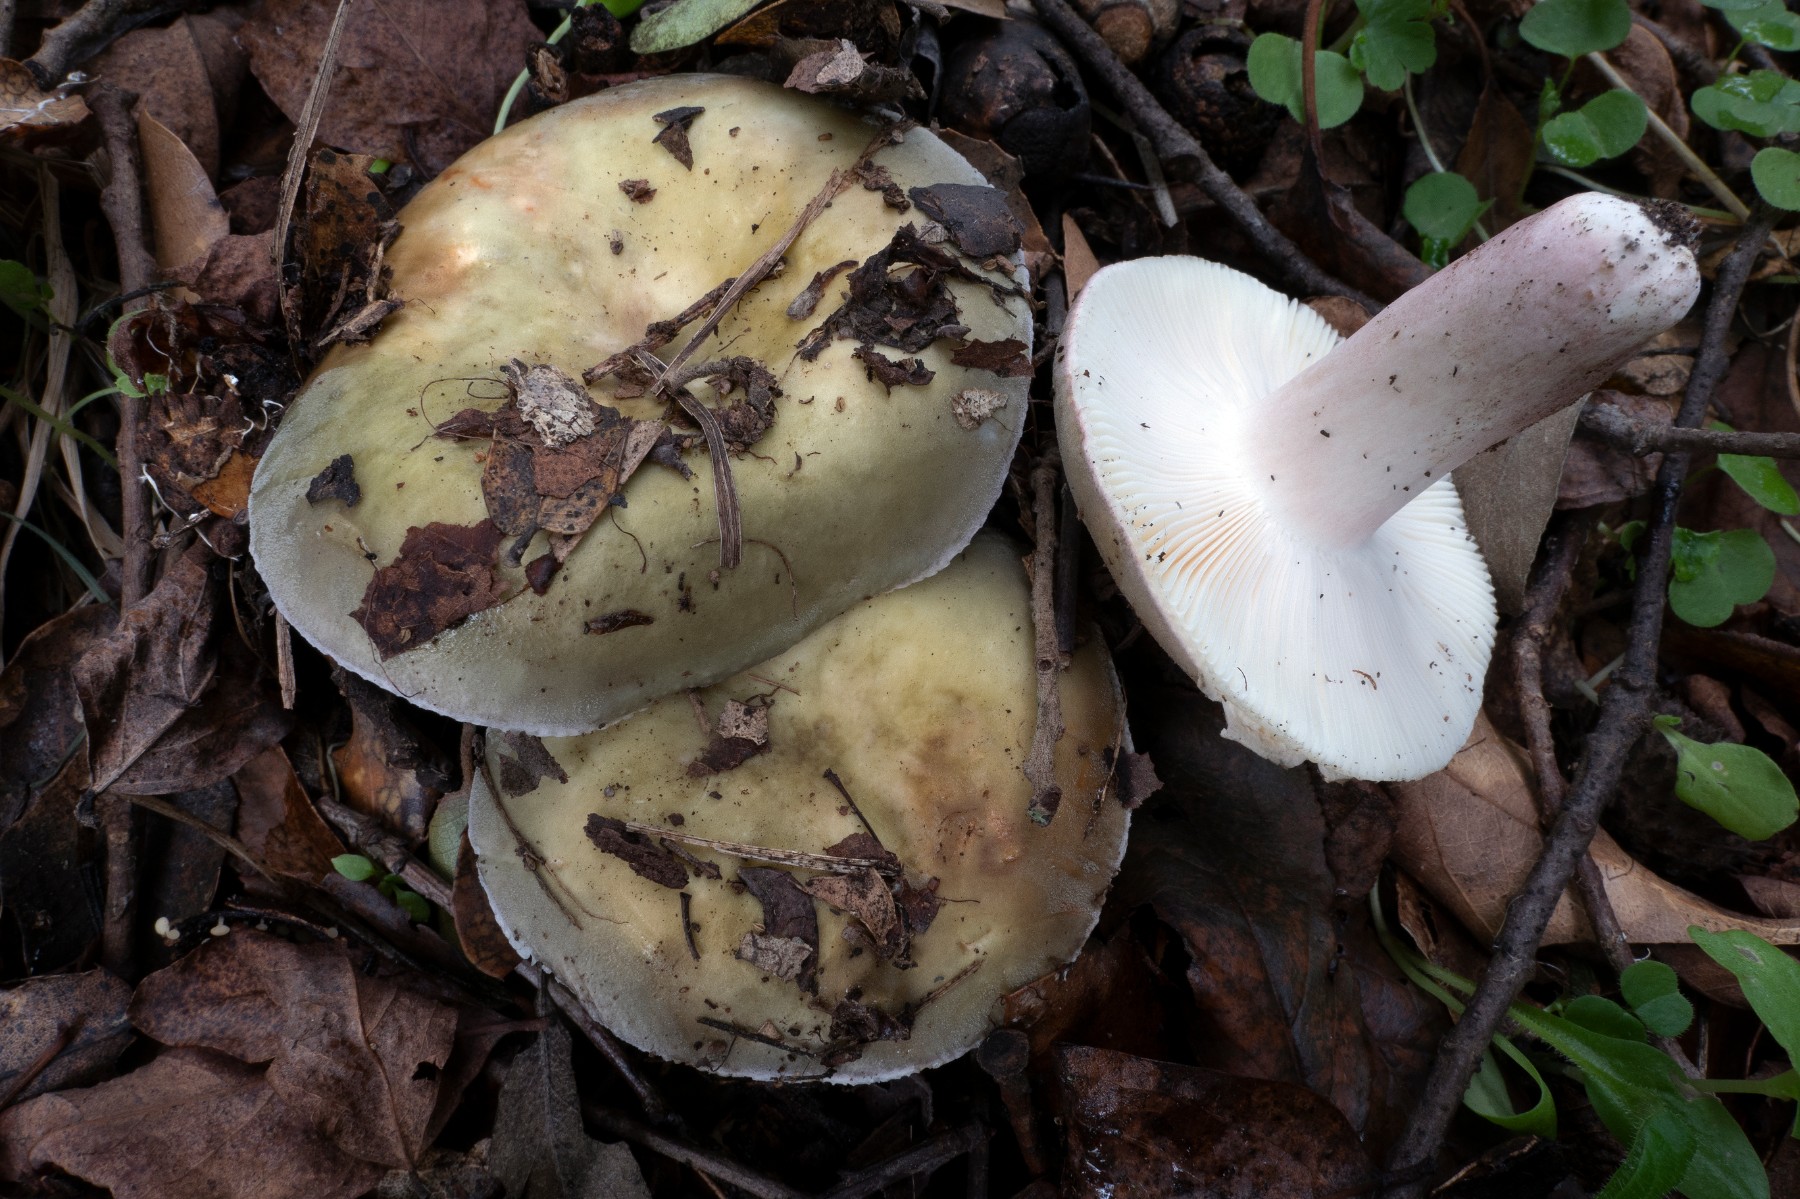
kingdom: Fungi
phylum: Basidiomycota
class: Agaricomycetes
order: Russulales
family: Russulaceae
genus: Russula
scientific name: Russula amoenicolor
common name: skønfodet skørhat
